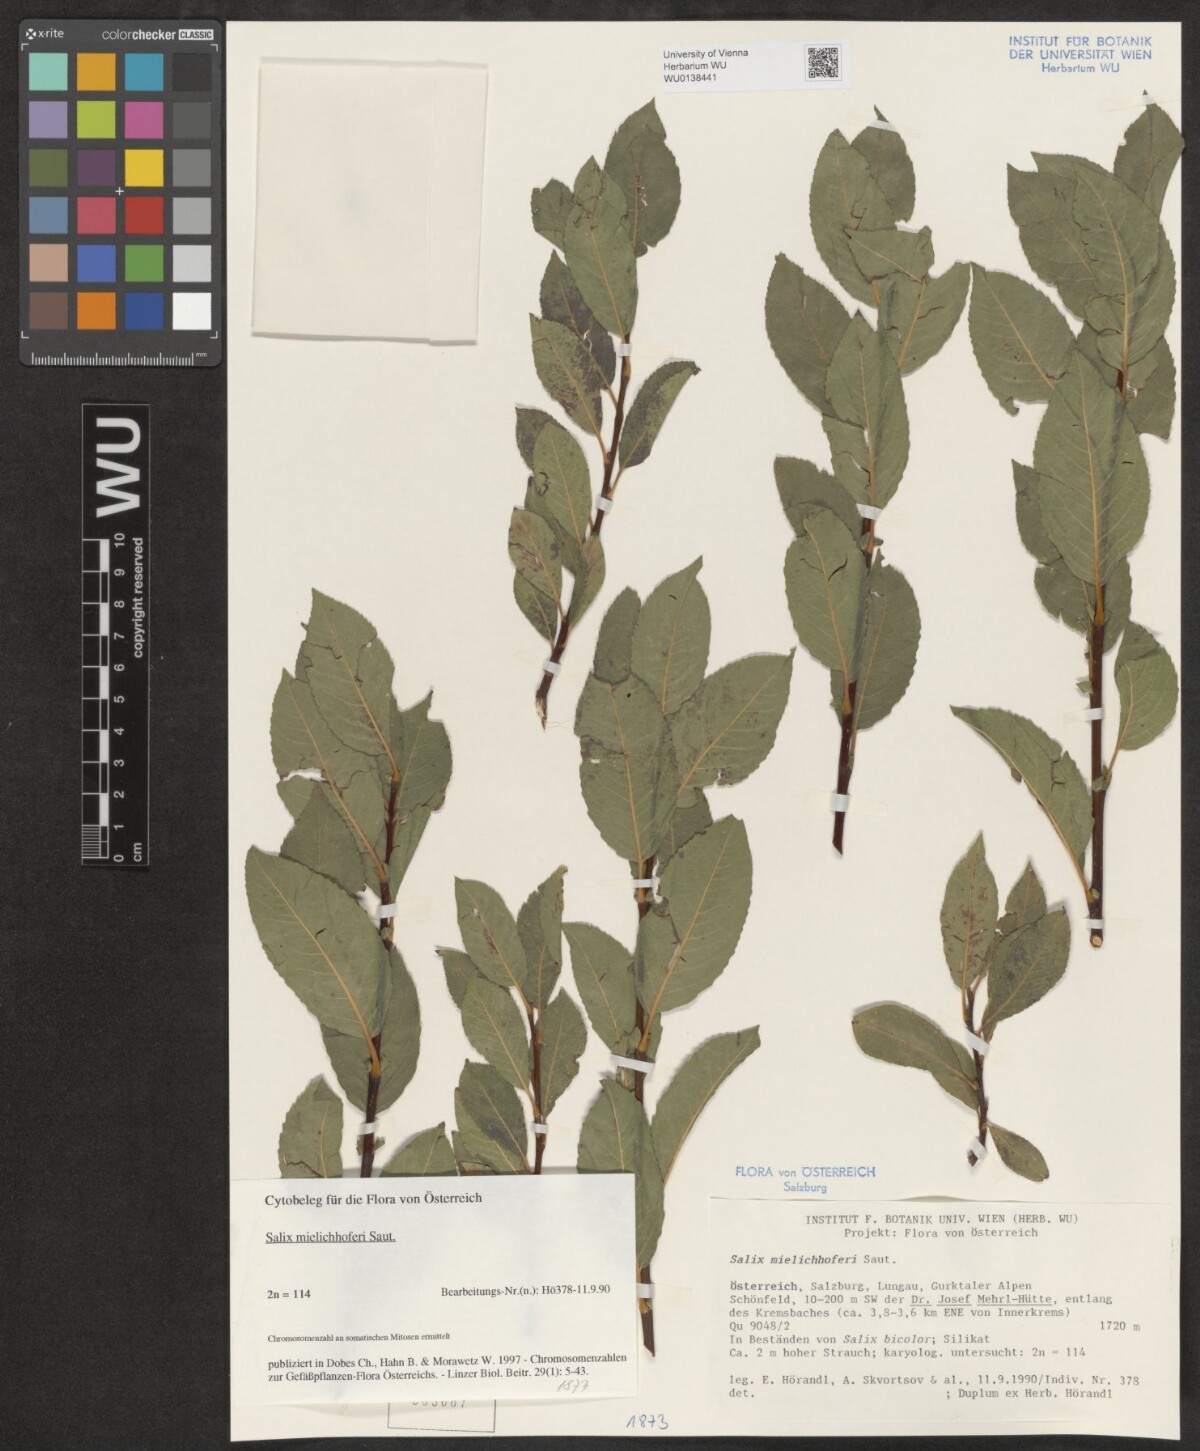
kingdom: Plantae
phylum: Tracheophyta
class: Magnoliopsida
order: Malpighiales
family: Salicaceae
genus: Salix
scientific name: Salix mielichhoferi
